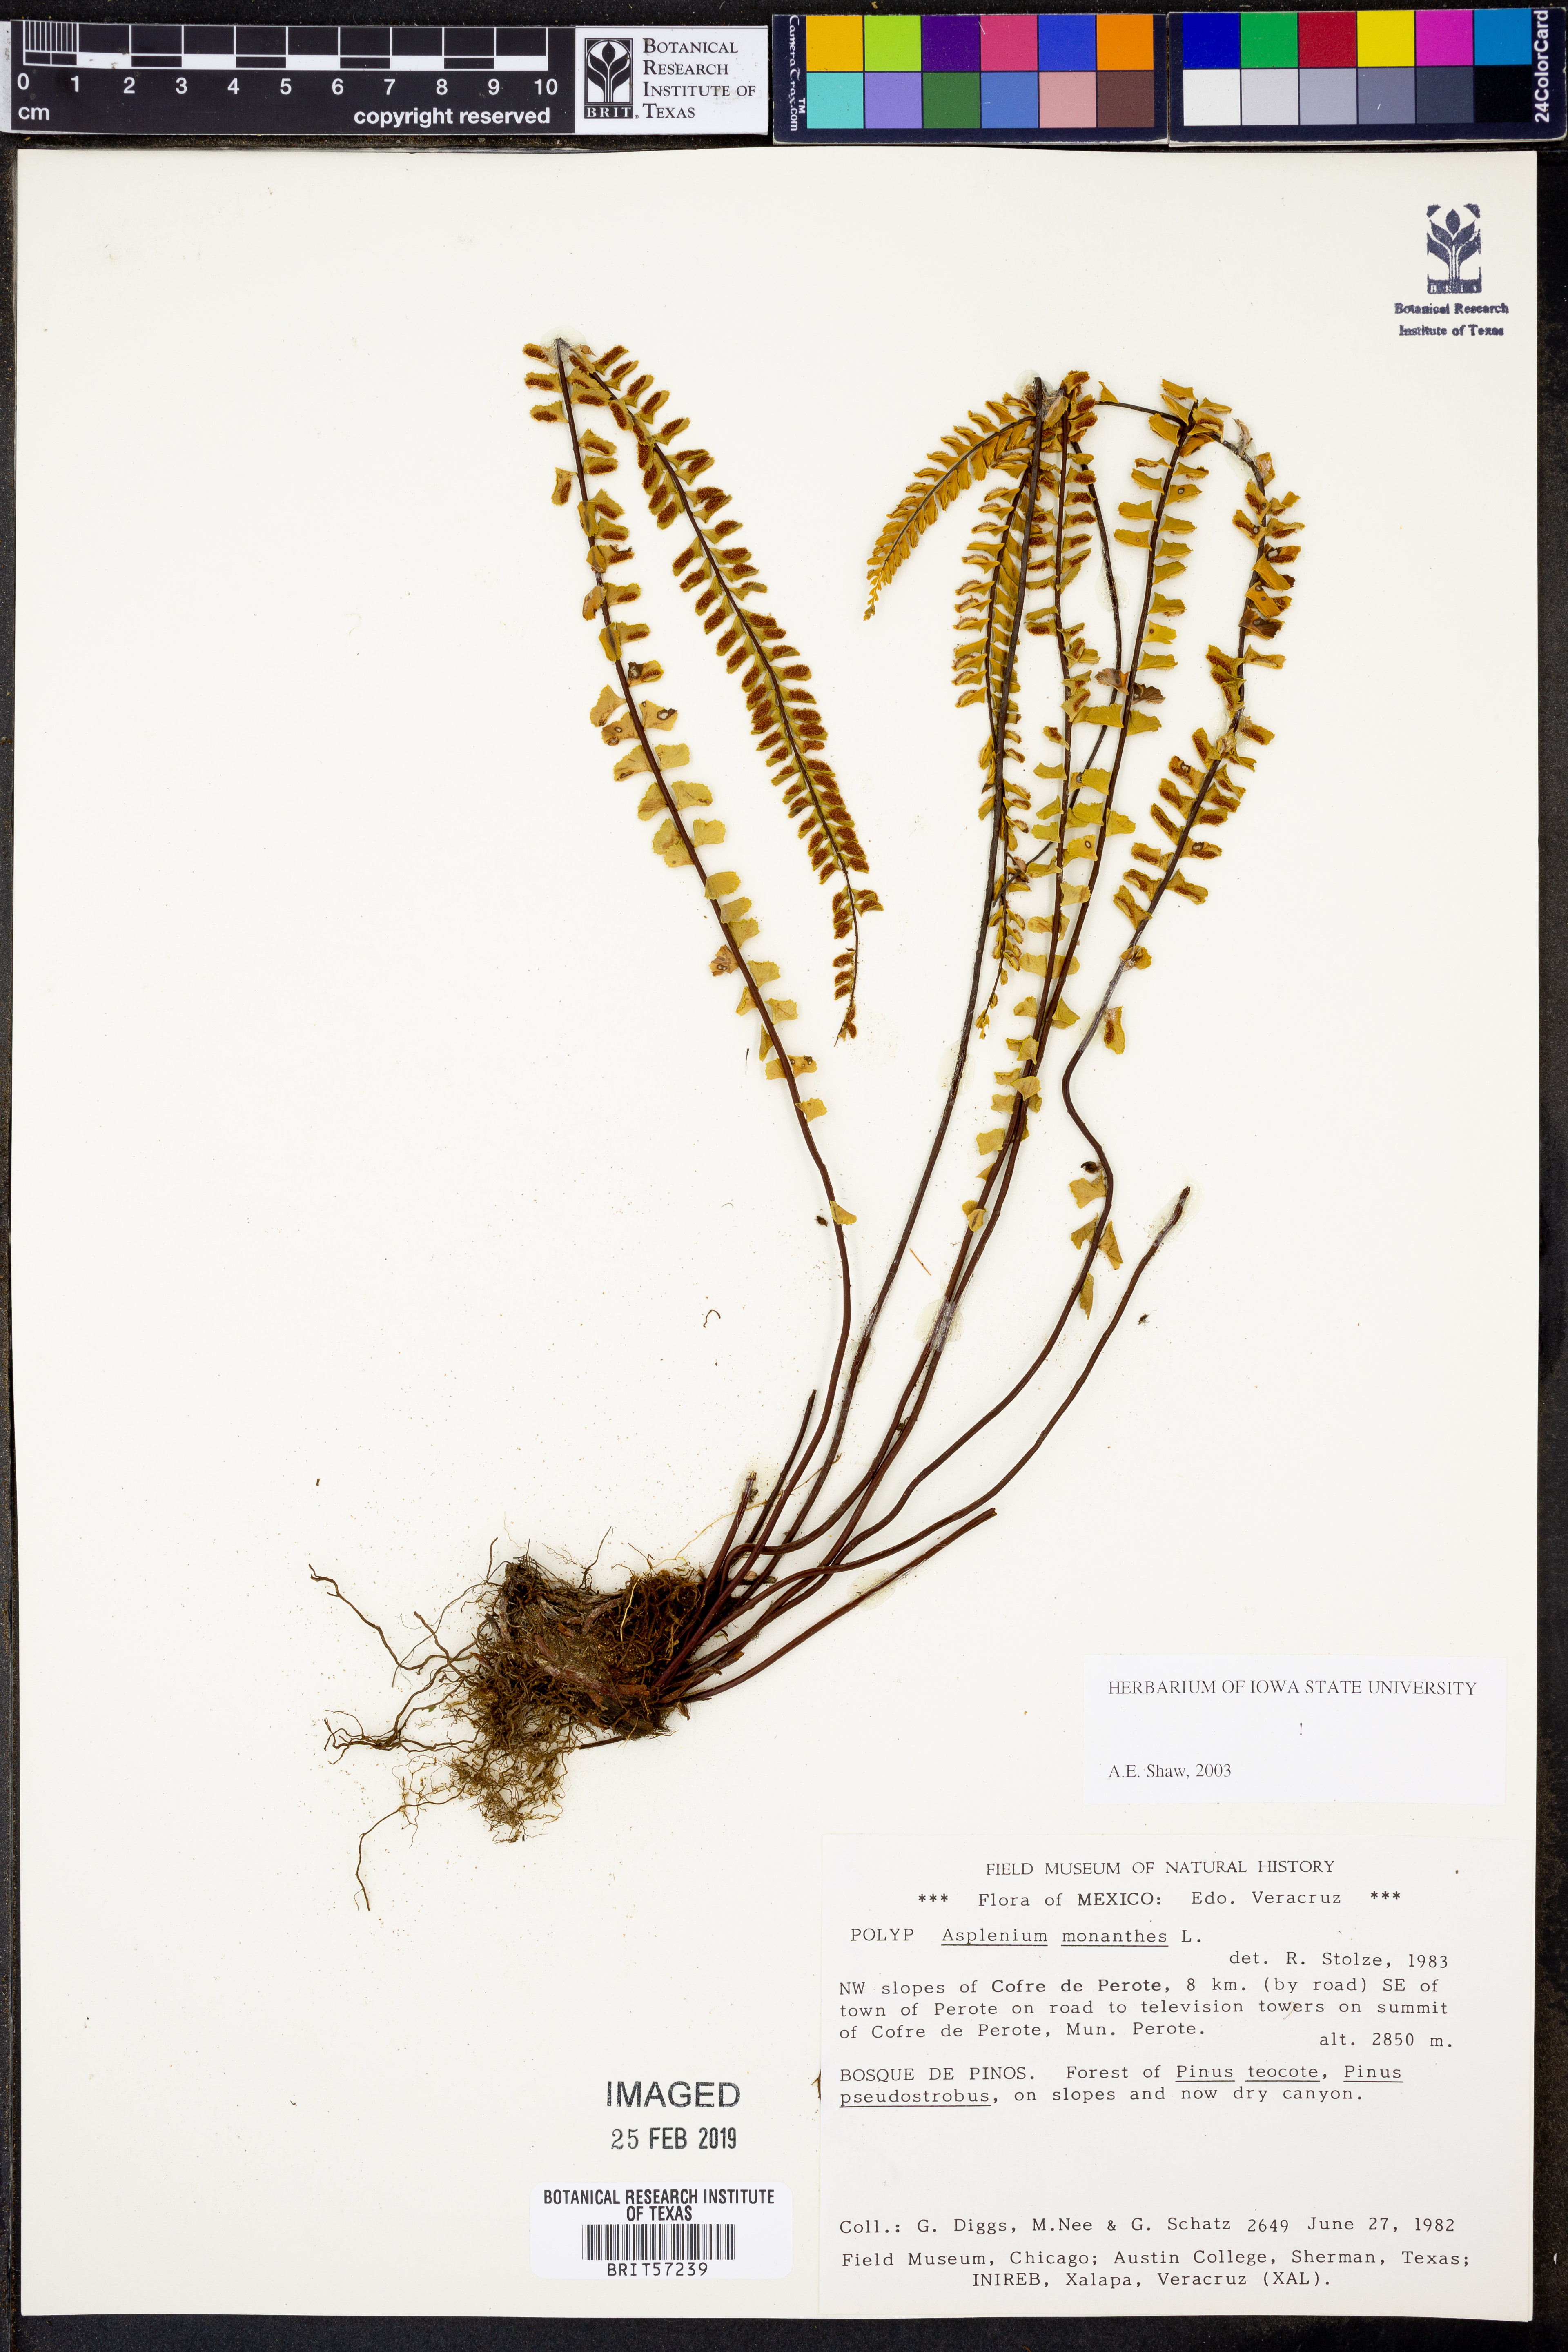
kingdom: Plantae
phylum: Tracheophyta
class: Polypodiopsida
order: Polypodiales
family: Aspleniaceae
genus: Asplenium
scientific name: Asplenium monanthes
